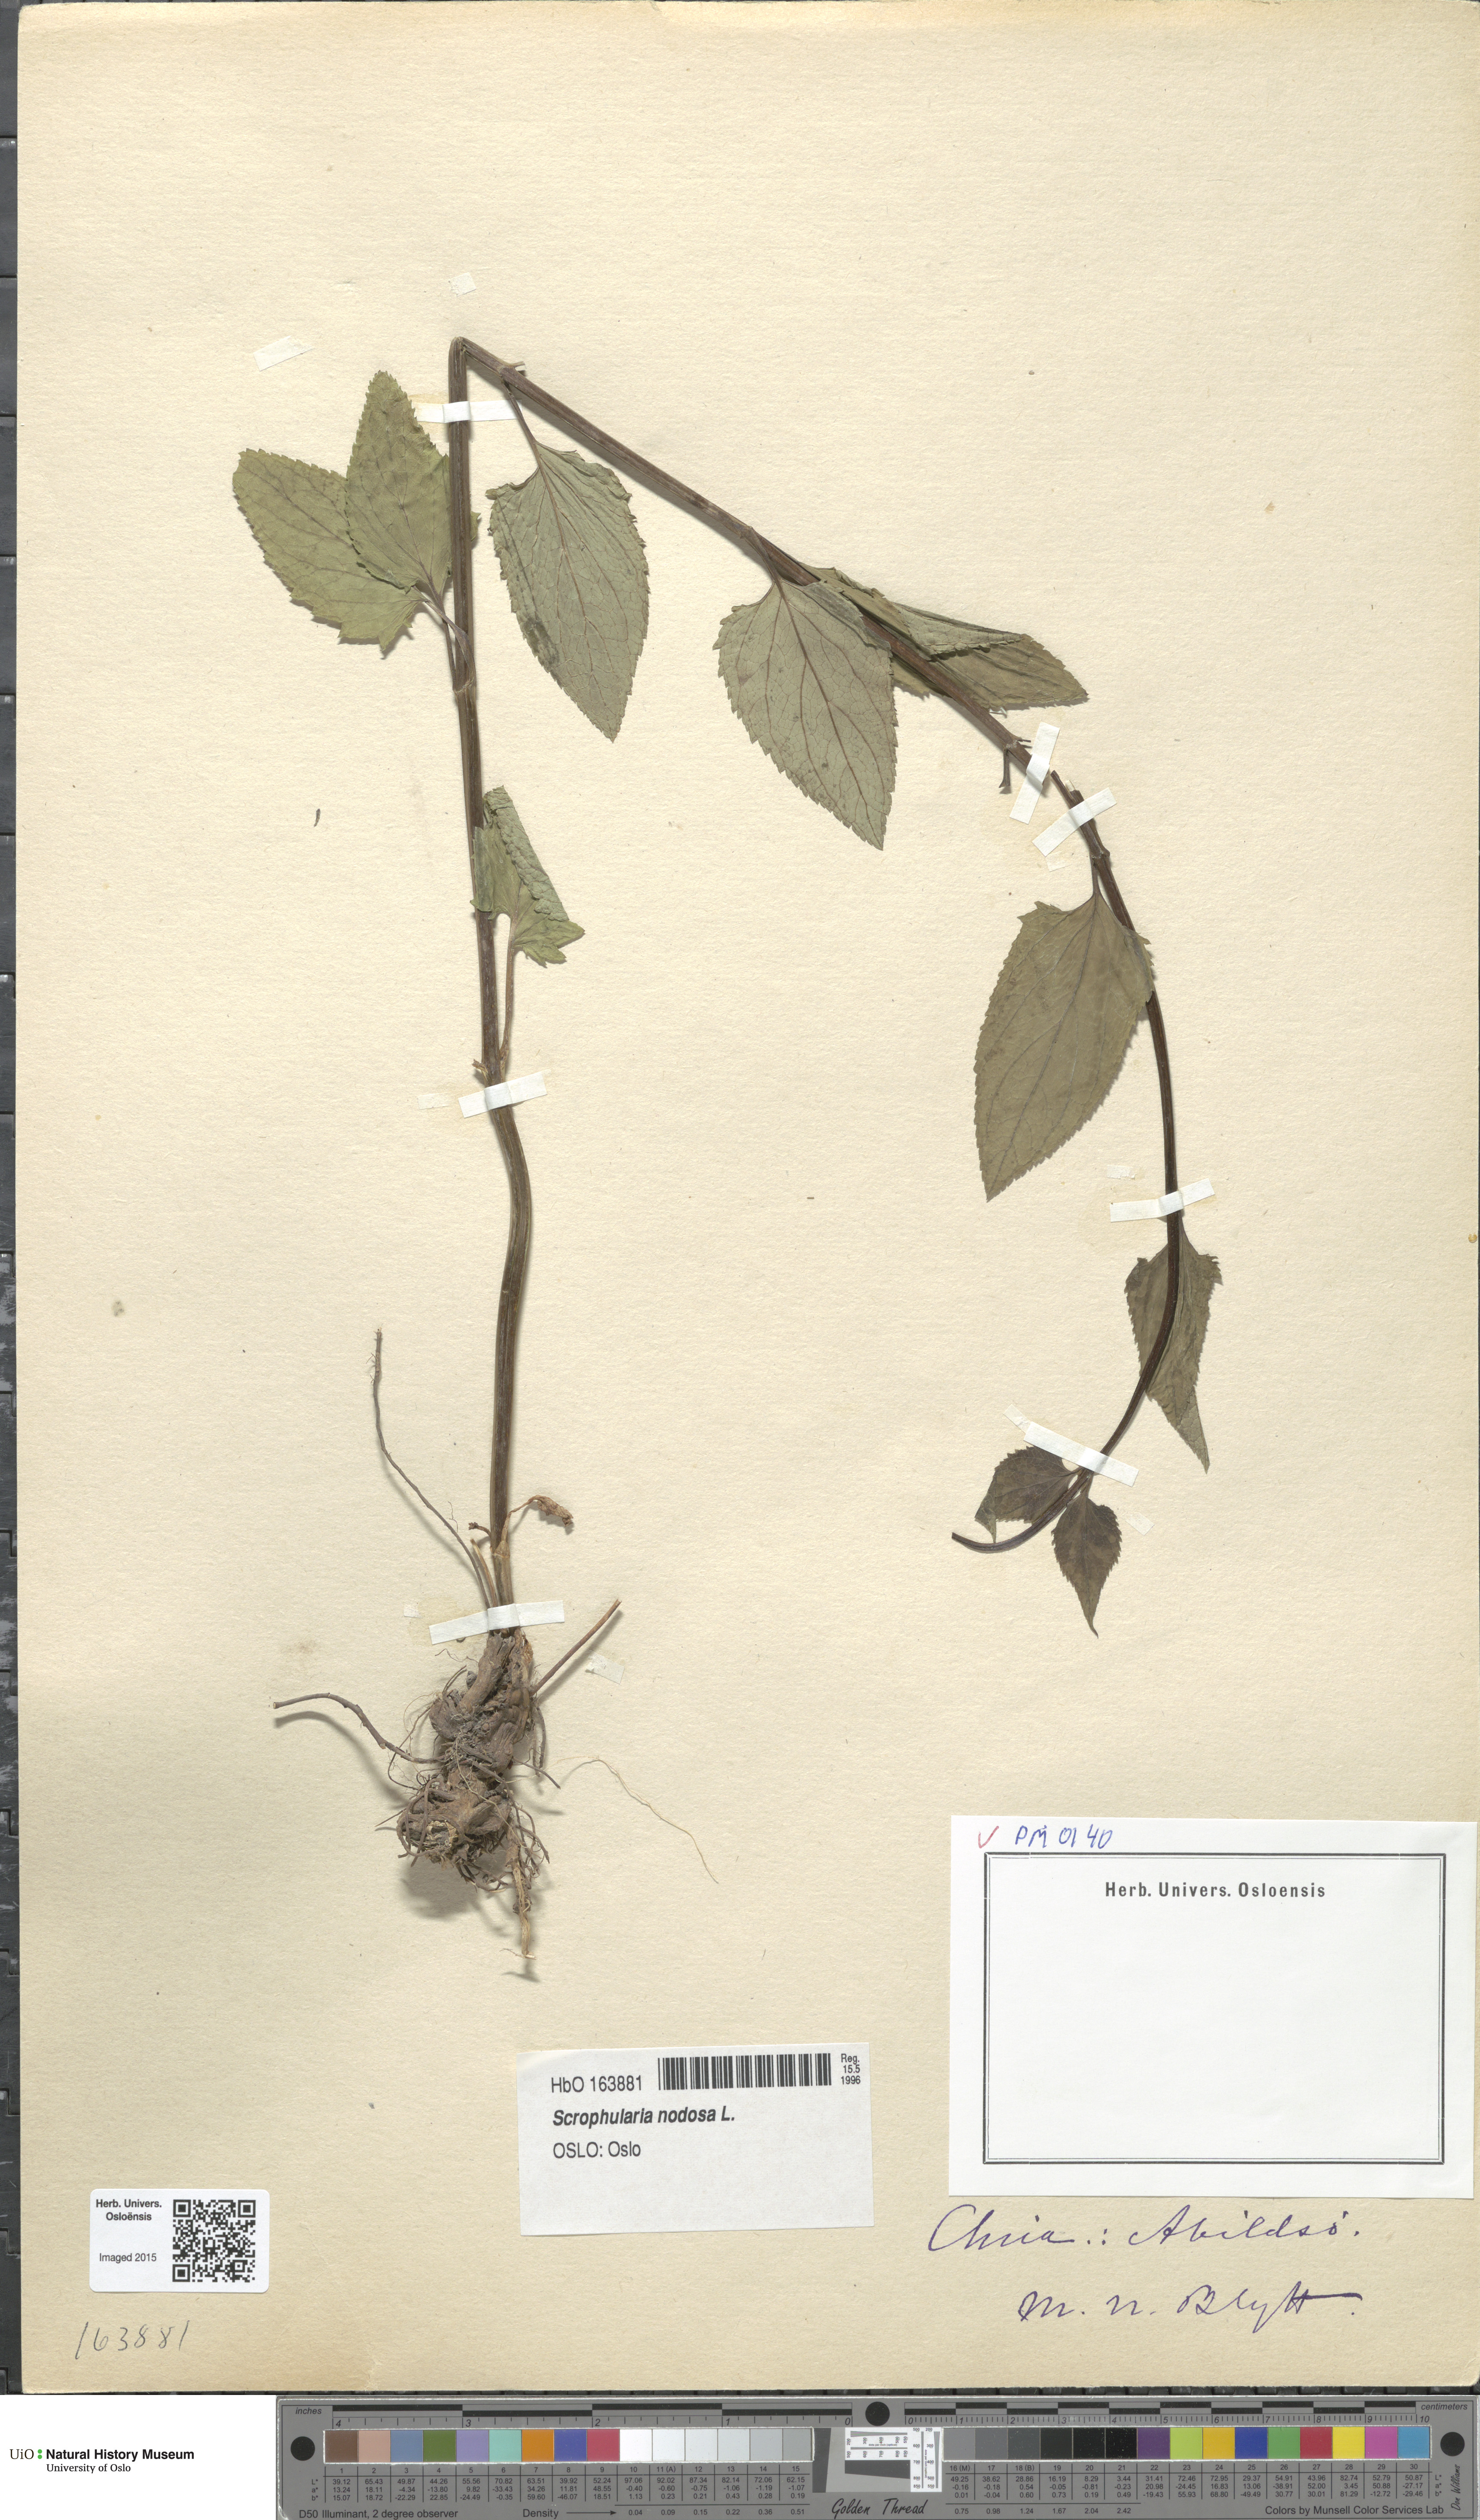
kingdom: Plantae
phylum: Tracheophyta
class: Magnoliopsida
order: Lamiales
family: Scrophulariaceae
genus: Scrophularia
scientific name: Scrophularia nodosa
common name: Common figwort
